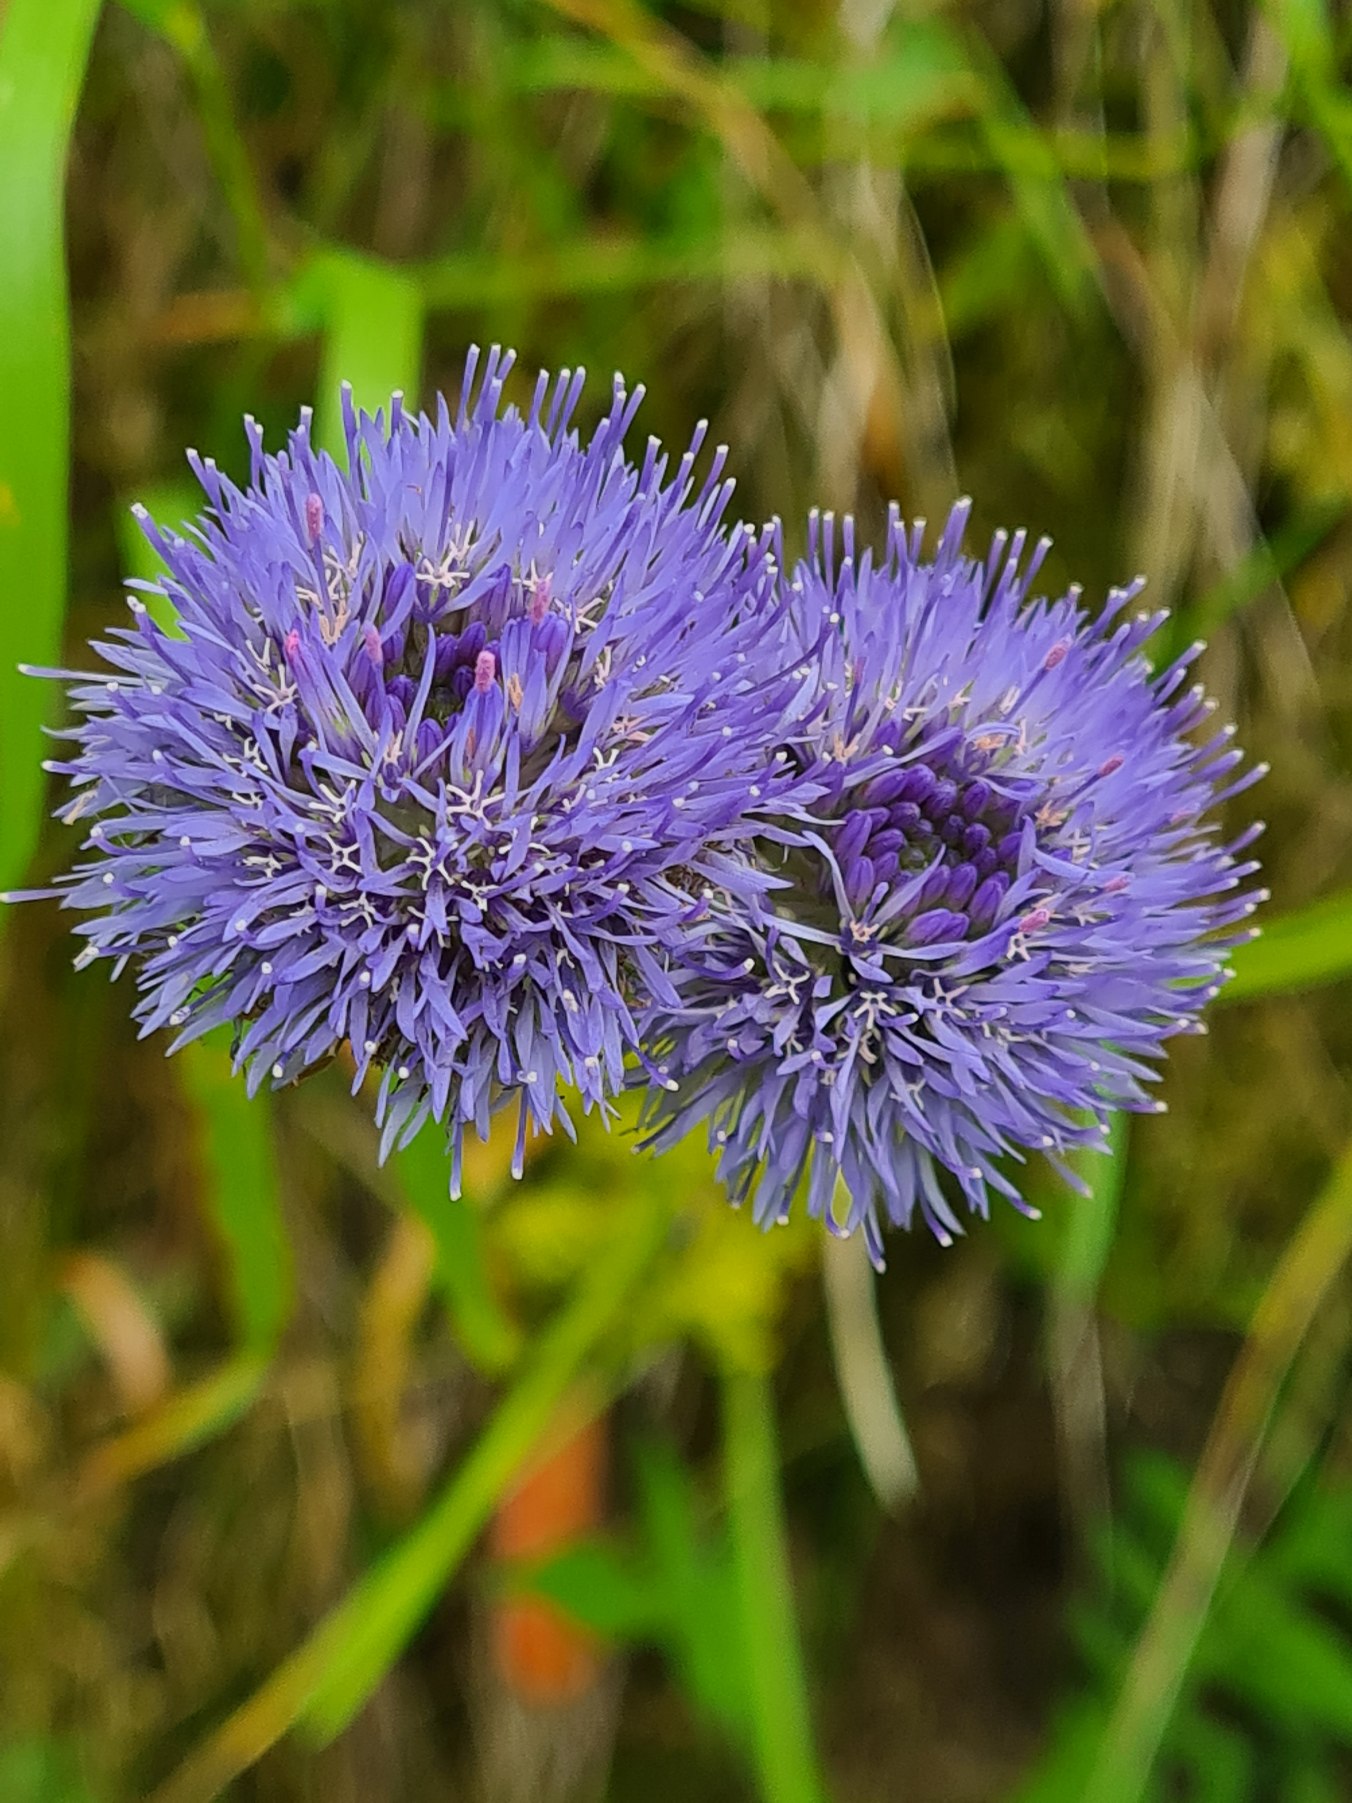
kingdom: Plantae
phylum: Tracheophyta
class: Magnoliopsida
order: Asterales
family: Campanulaceae
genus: Jasione
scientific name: Jasione montana
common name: Blåmunke
